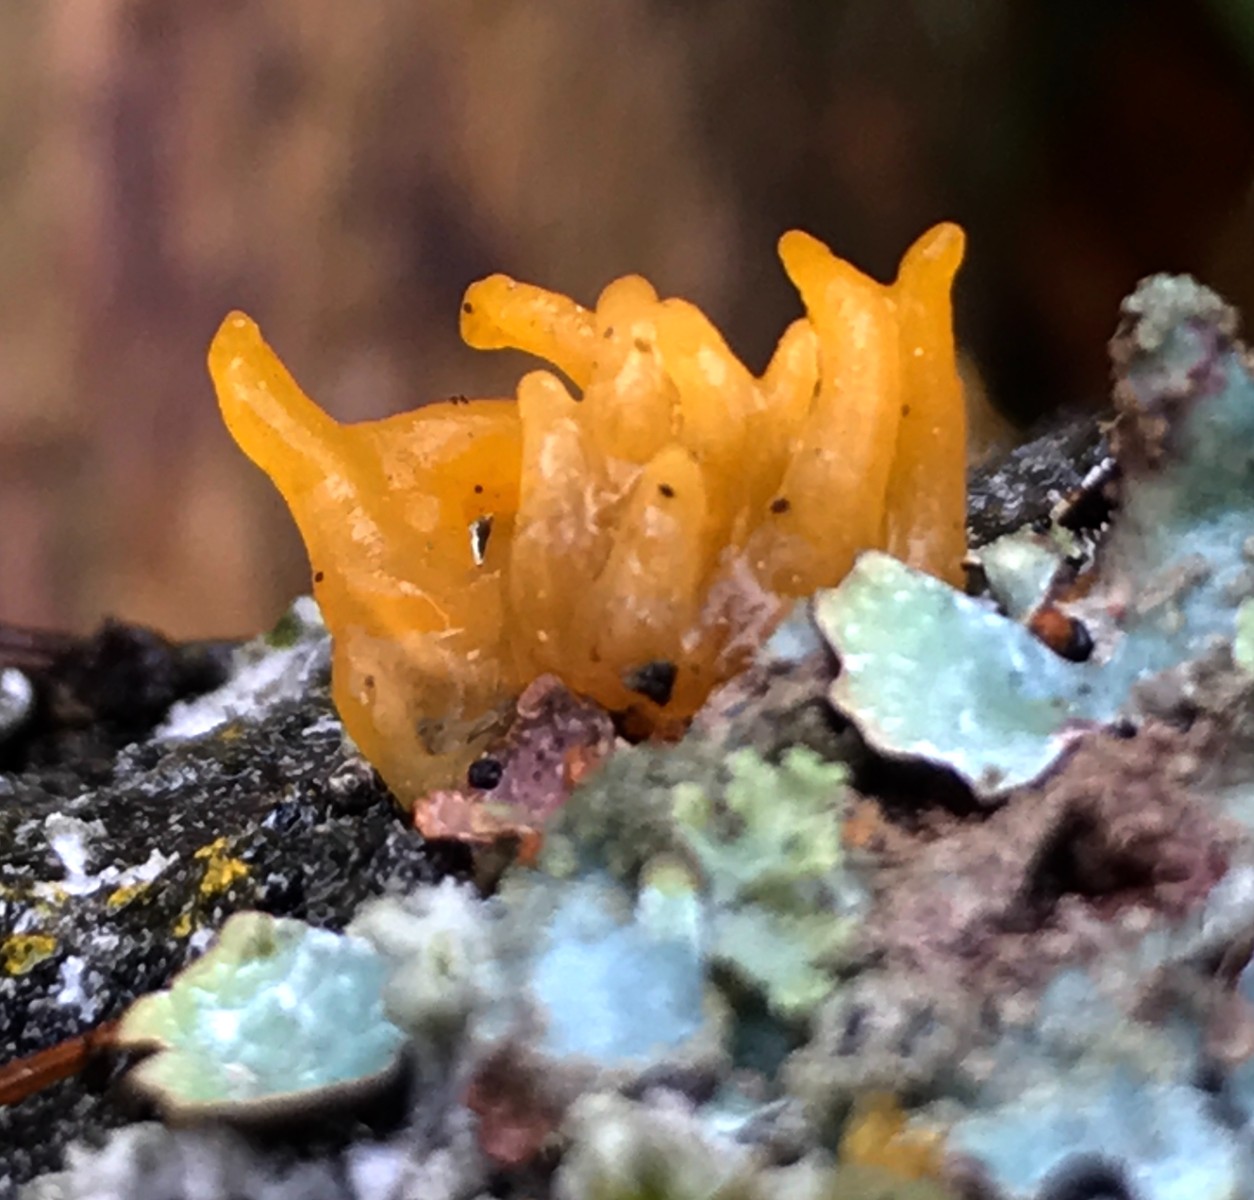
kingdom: Fungi
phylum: Basidiomycota
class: Dacrymycetes
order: Dacrymycetales
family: Dacrymycetaceae
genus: Calocera
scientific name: Calocera cornea
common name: liden guldgaffel
